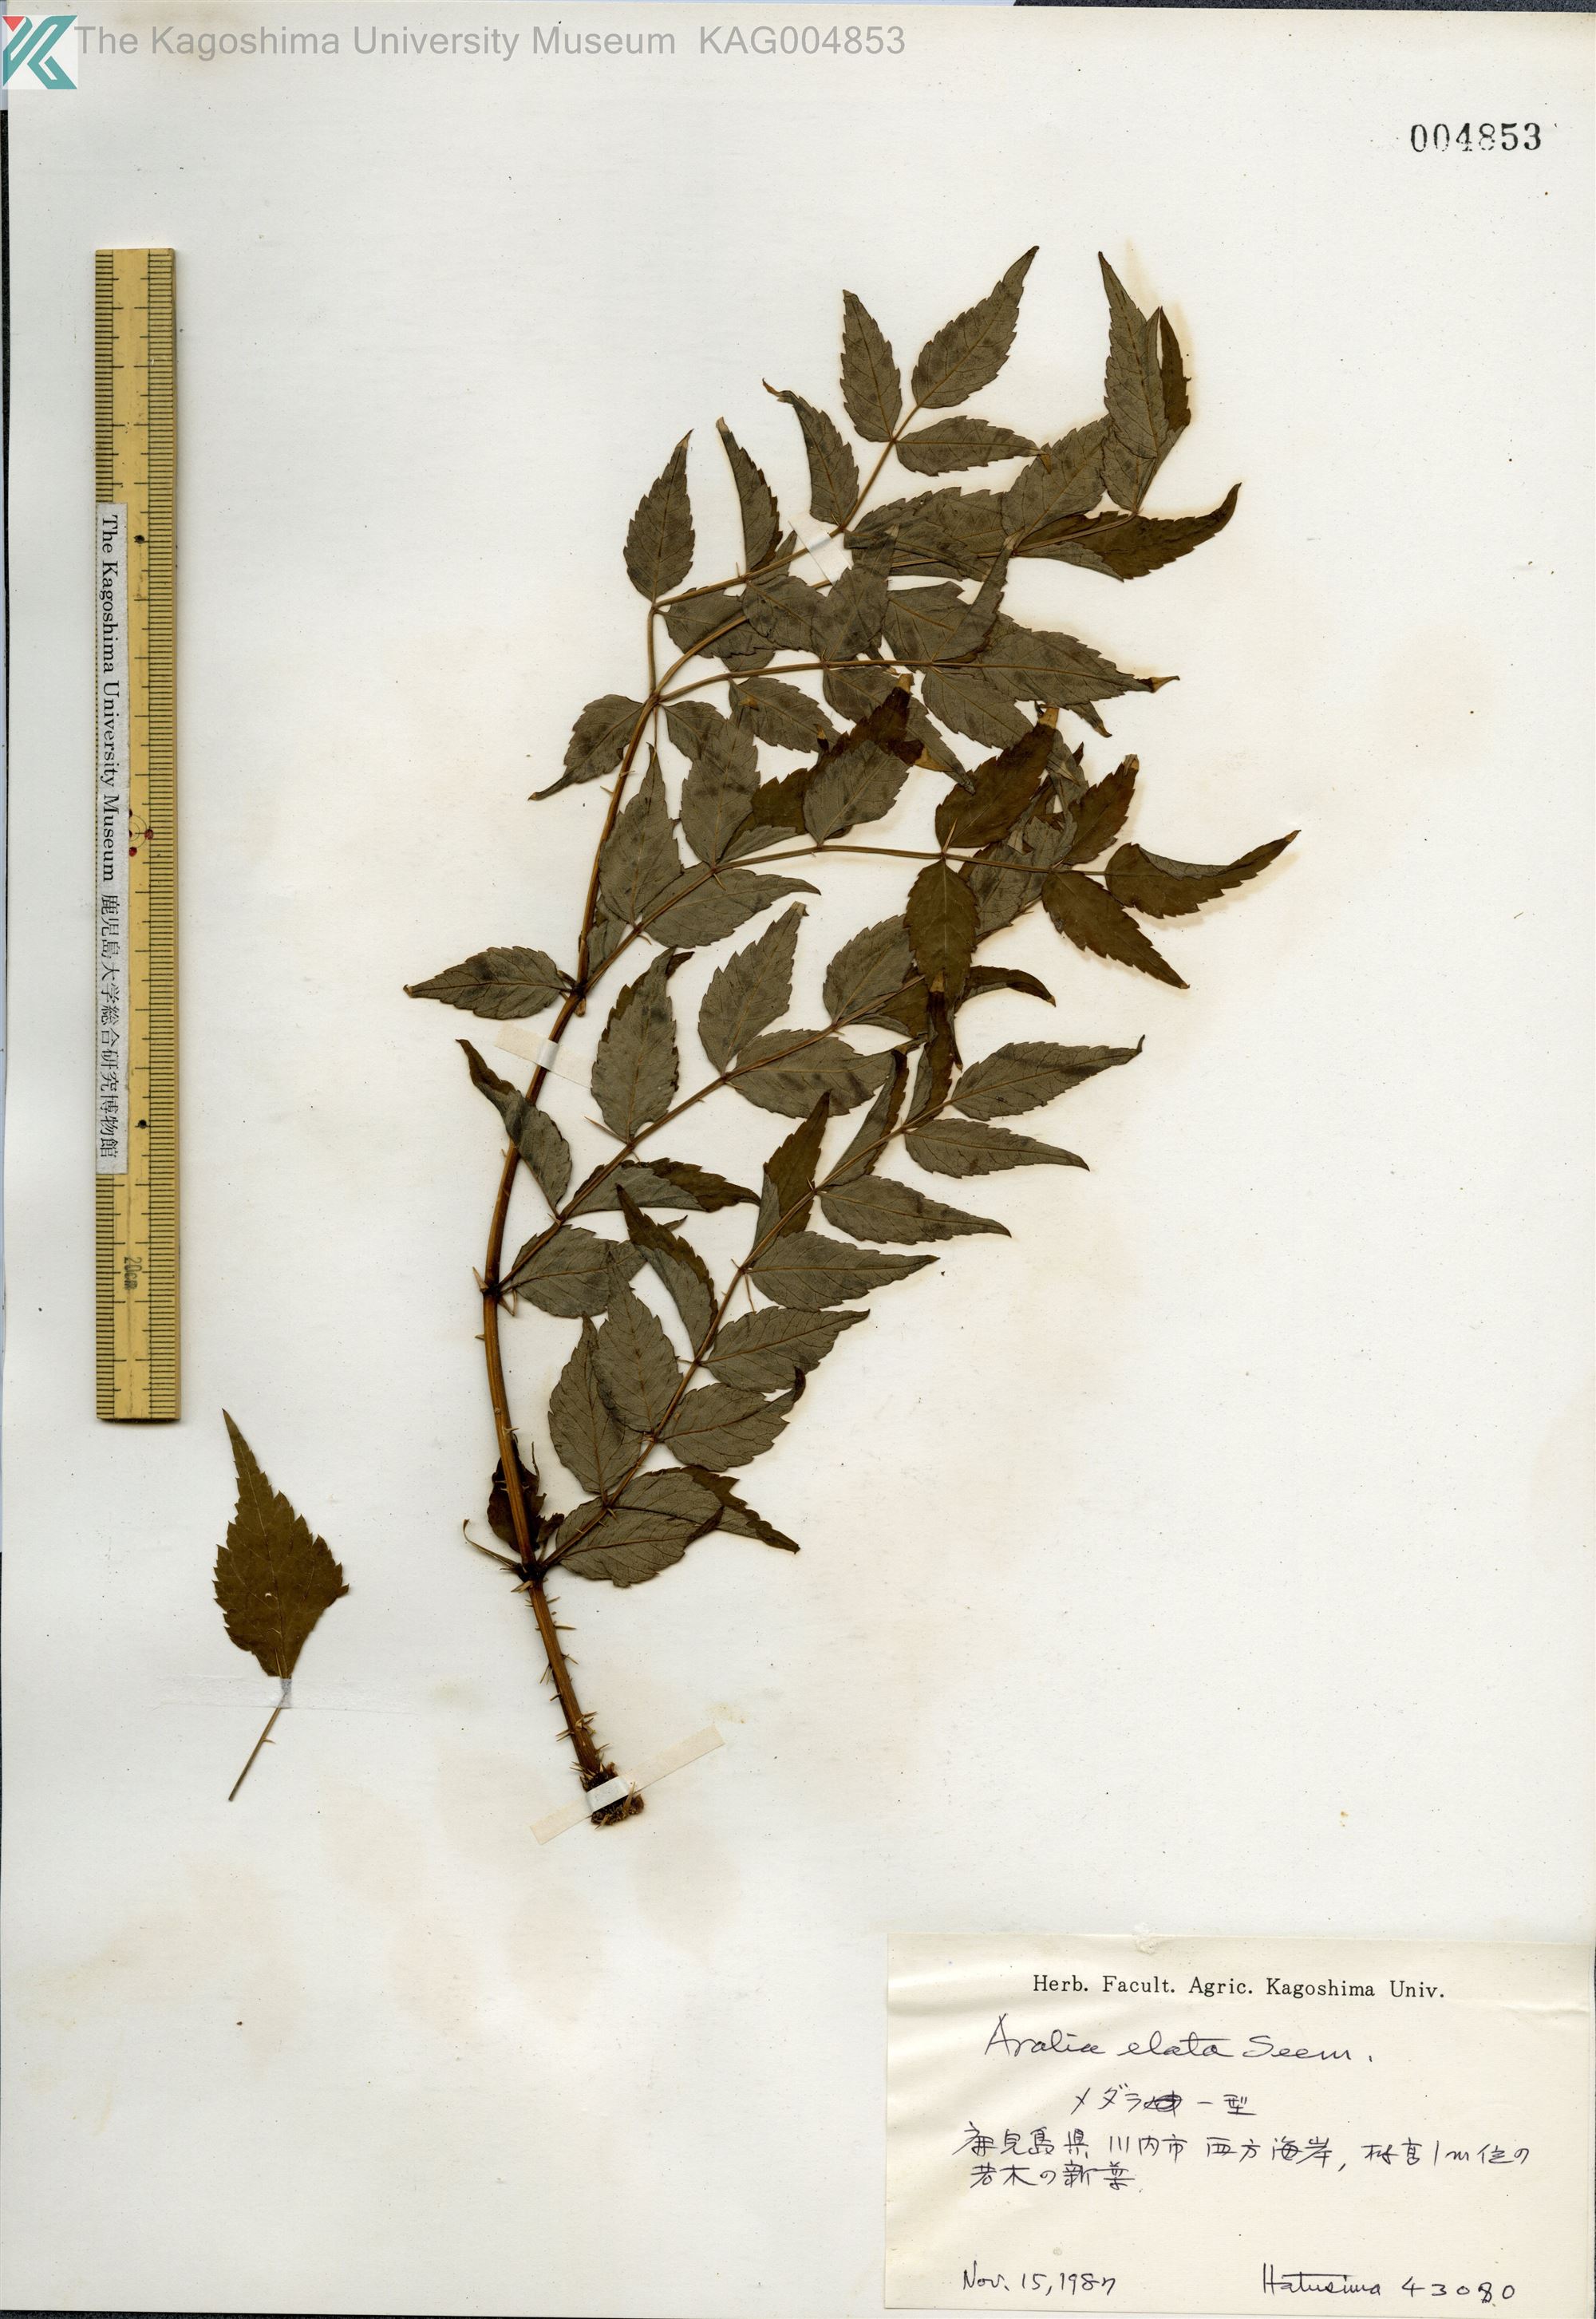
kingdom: Plantae
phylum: Tracheophyta
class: Magnoliopsida
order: Apiales
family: Araliaceae
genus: Aralia
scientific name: Aralia elata
